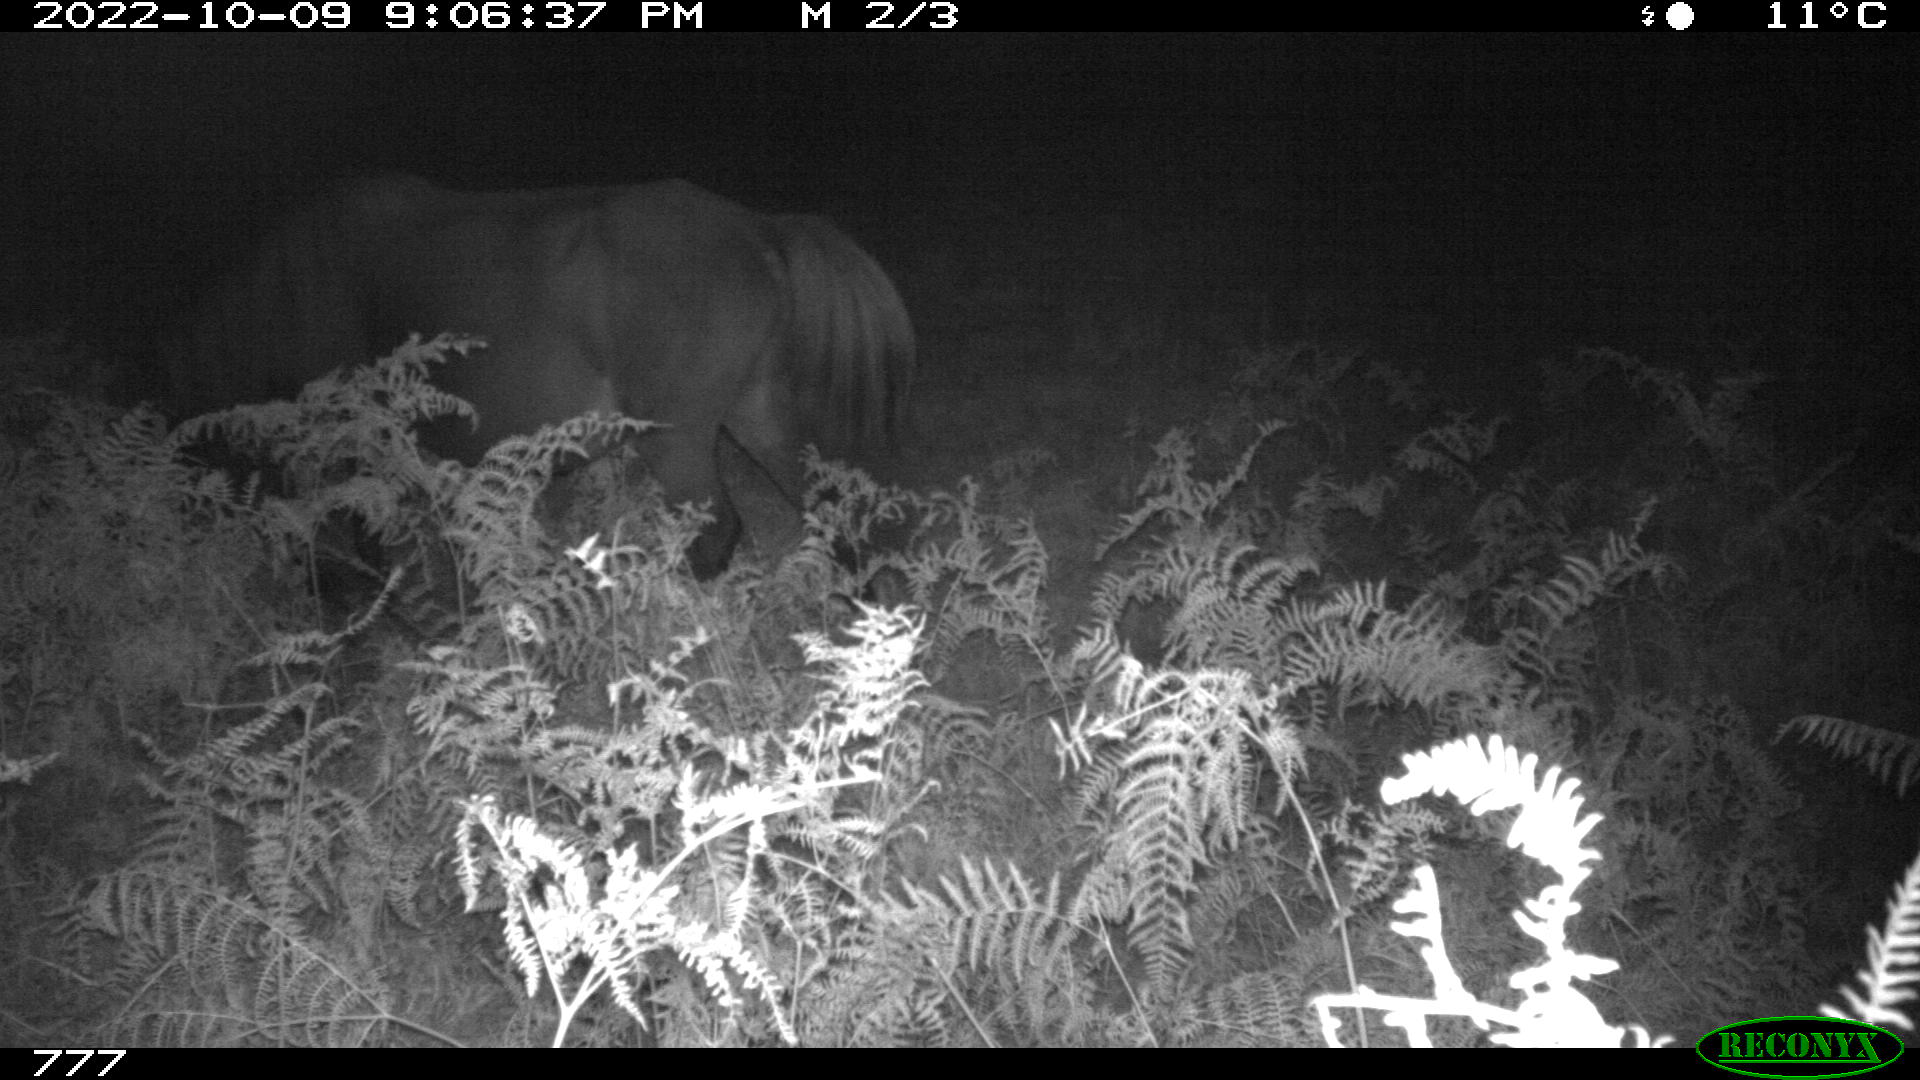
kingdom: Animalia
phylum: Chordata
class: Mammalia
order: Perissodactyla
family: Equidae
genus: Equus
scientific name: Equus caballus
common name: Horse
